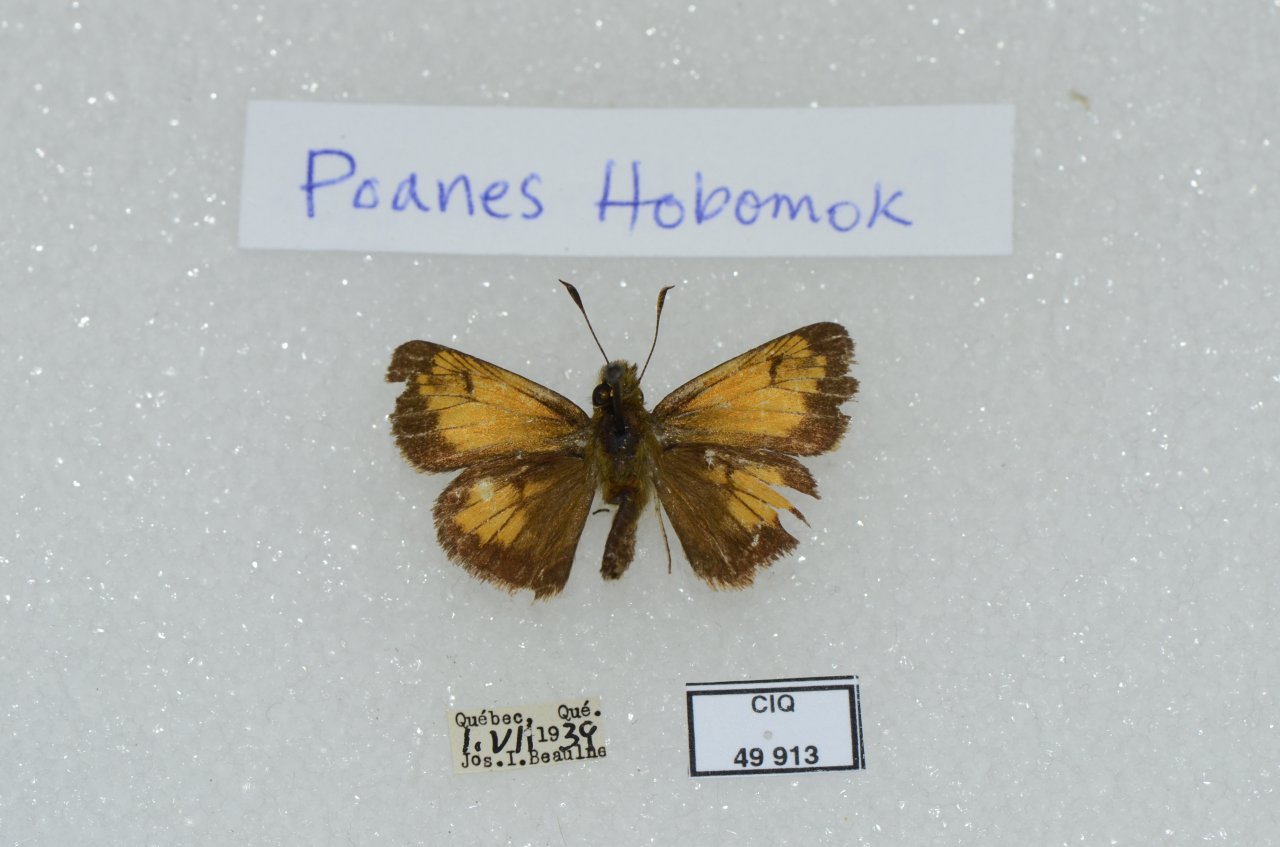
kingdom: Animalia
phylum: Arthropoda
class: Insecta
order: Lepidoptera
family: Hesperiidae
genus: Lon
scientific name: Lon hobomok
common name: Hobomok Skipper
